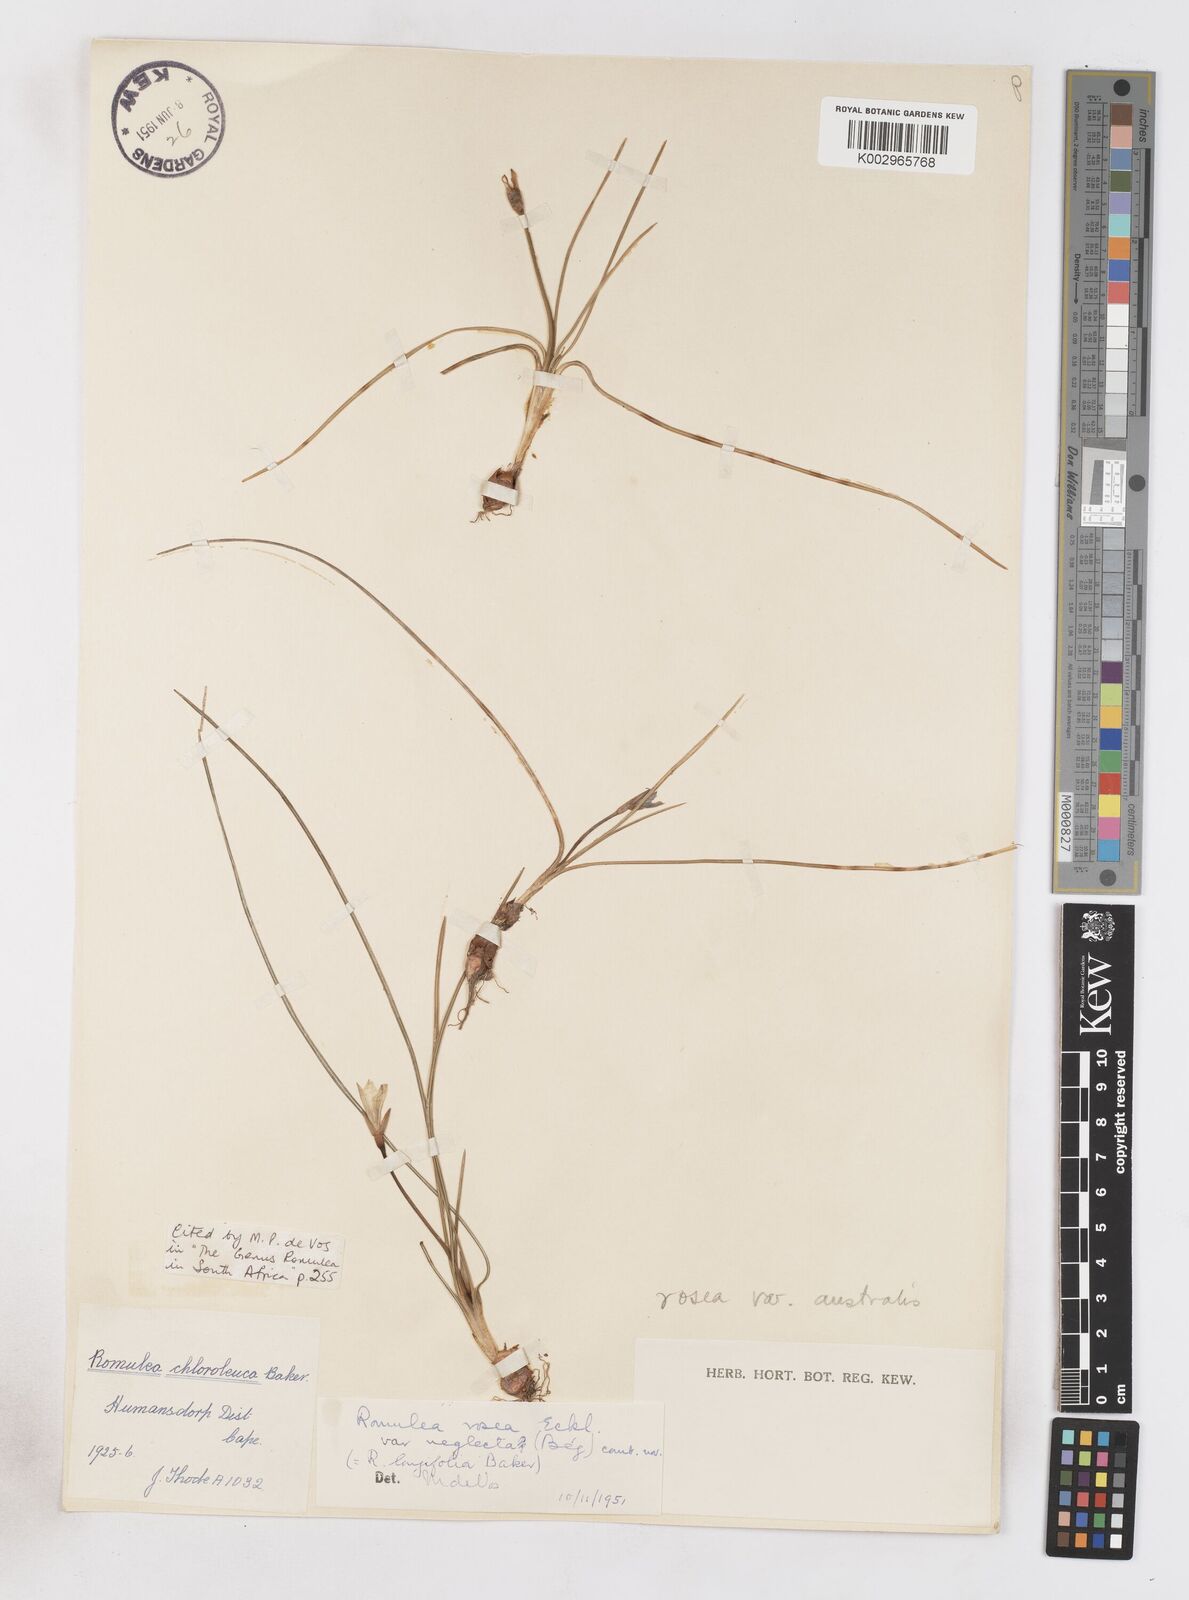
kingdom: Plantae
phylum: Tracheophyta
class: Liliopsida
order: Asparagales
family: Iridaceae
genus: Romulea
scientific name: Romulea rosea
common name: Oniongrass
